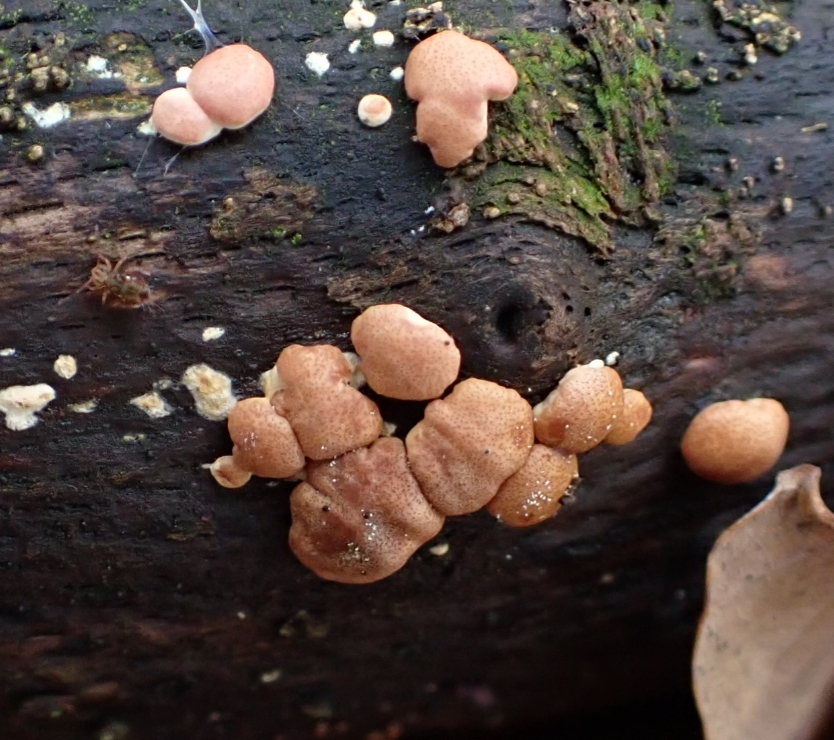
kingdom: Fungi
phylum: Ascomycota
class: Sordariomycetes
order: Hypocreales
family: Hypocreaceae
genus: Trichoderma
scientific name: Trichoderma europaeum
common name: rosabrun kødkerne
